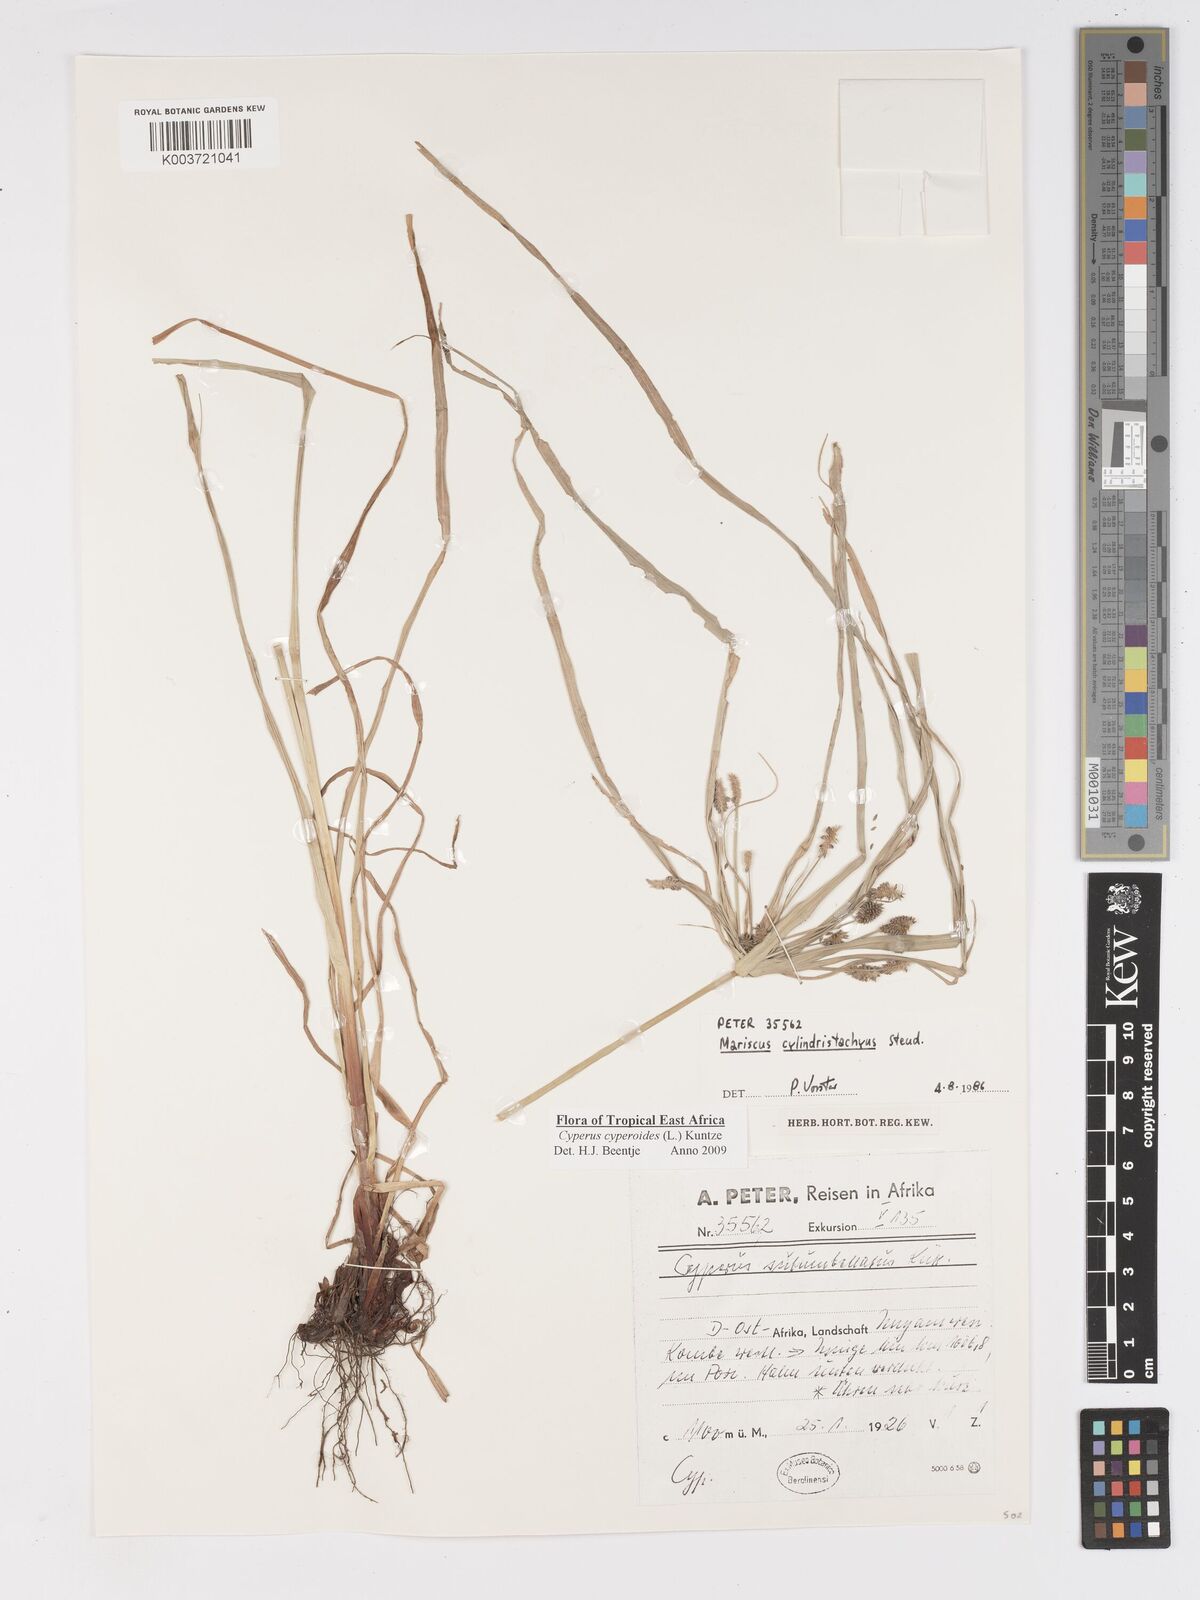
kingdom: Plantae
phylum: Tracheophyta
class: Liliopsida
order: Poales
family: Cyperaceae
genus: Cyperus
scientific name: Cyperus cyperoides
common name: Pacific island flat sedge
